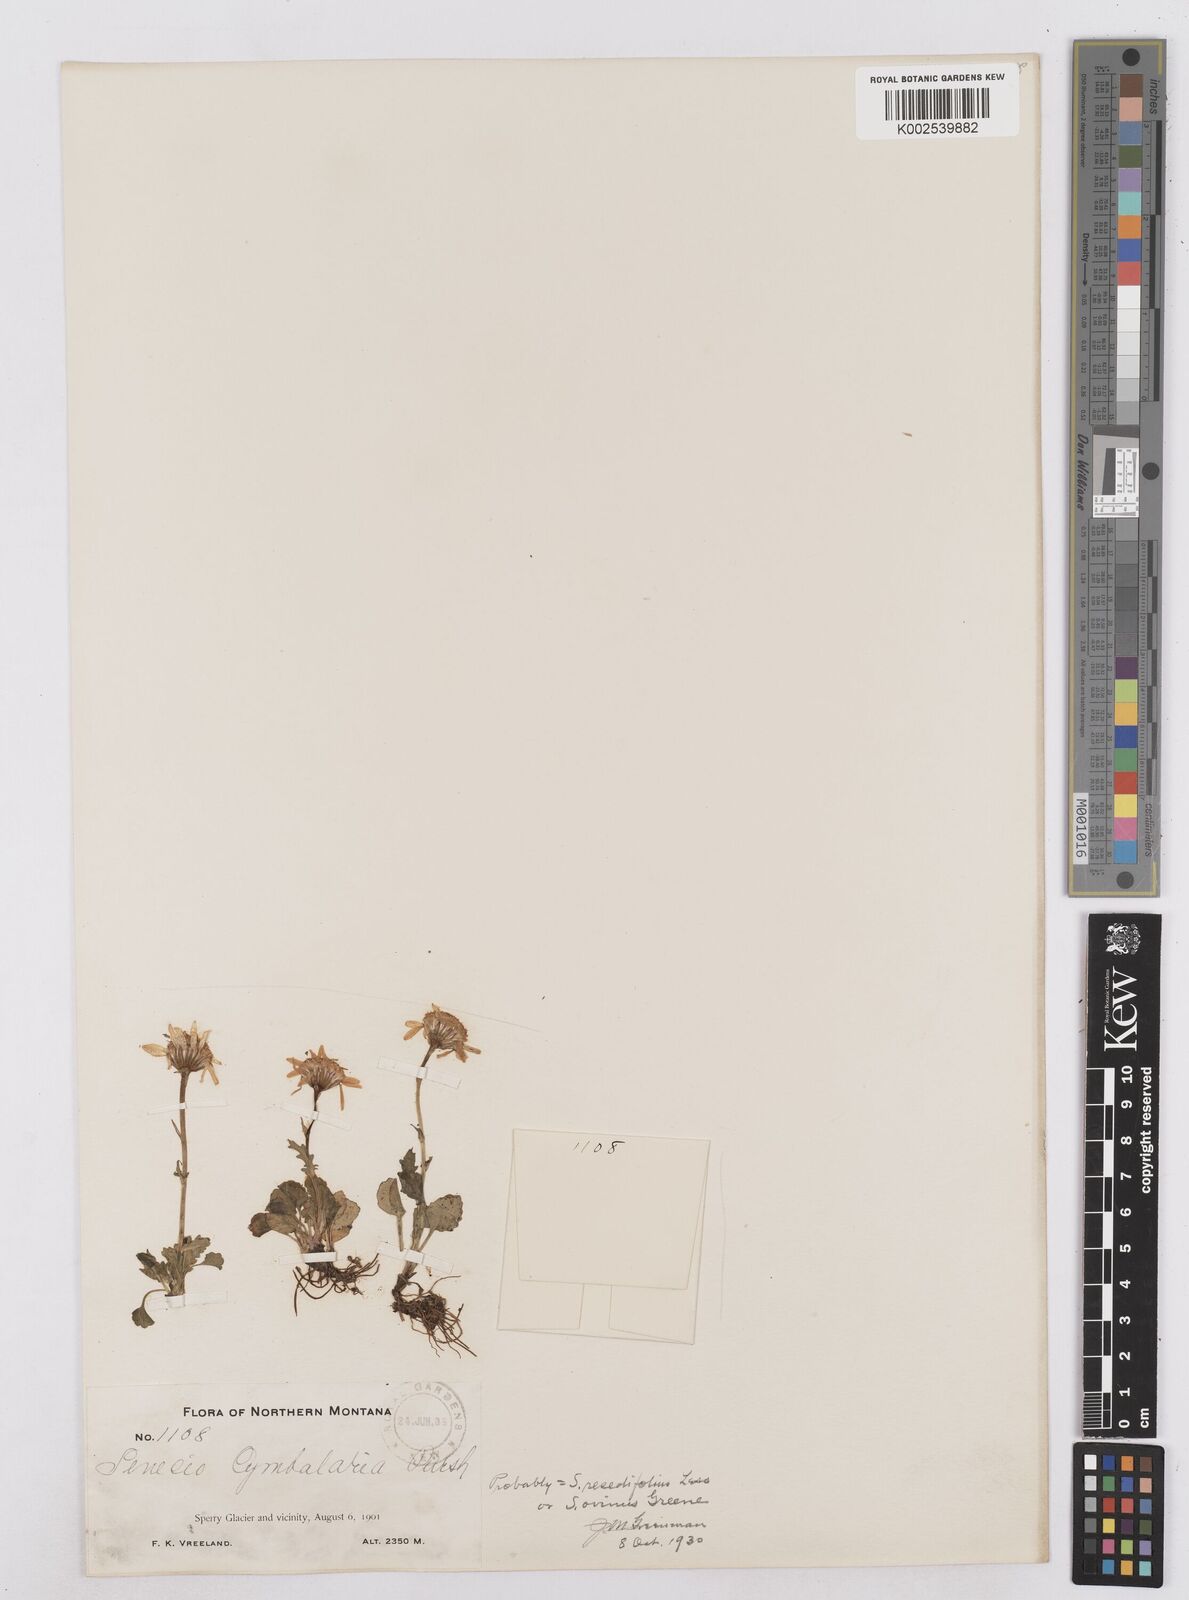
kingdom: Plantae
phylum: Tracheophyta
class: Magnoliopsida
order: Asterales
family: Asteraceae
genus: Packera
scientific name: Packera cymbalaria
